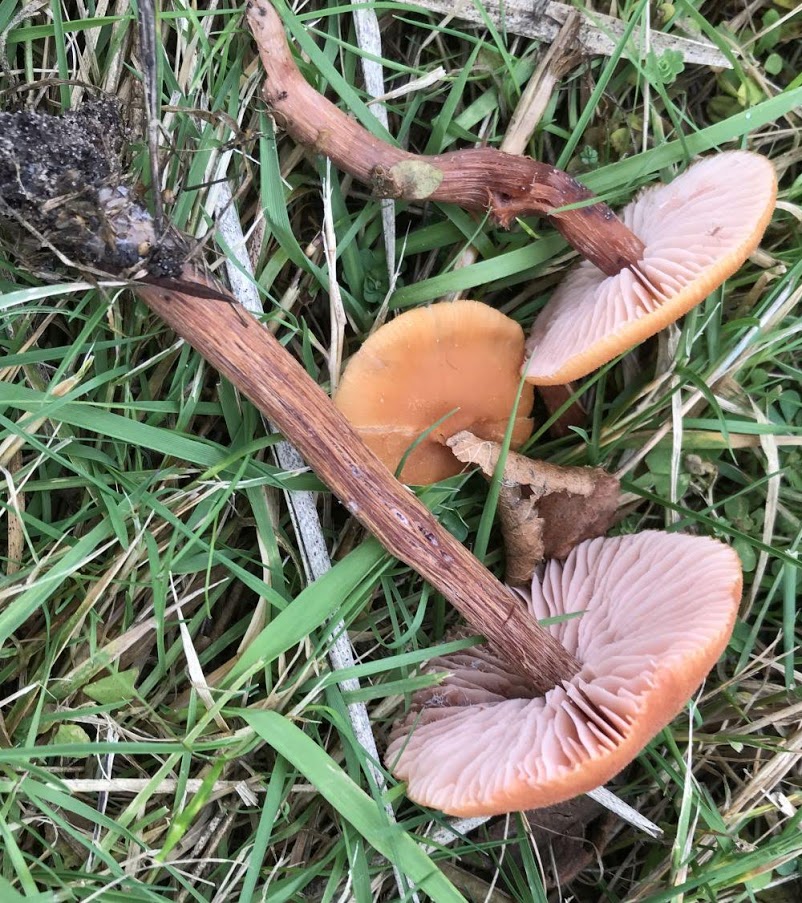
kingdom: Fungi
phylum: Basidiomycota
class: Agaricomycetes
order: Agaricales
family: Hydnangiaceae
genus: Laccaria
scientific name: Laccaria proxima
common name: stor ametysthat
